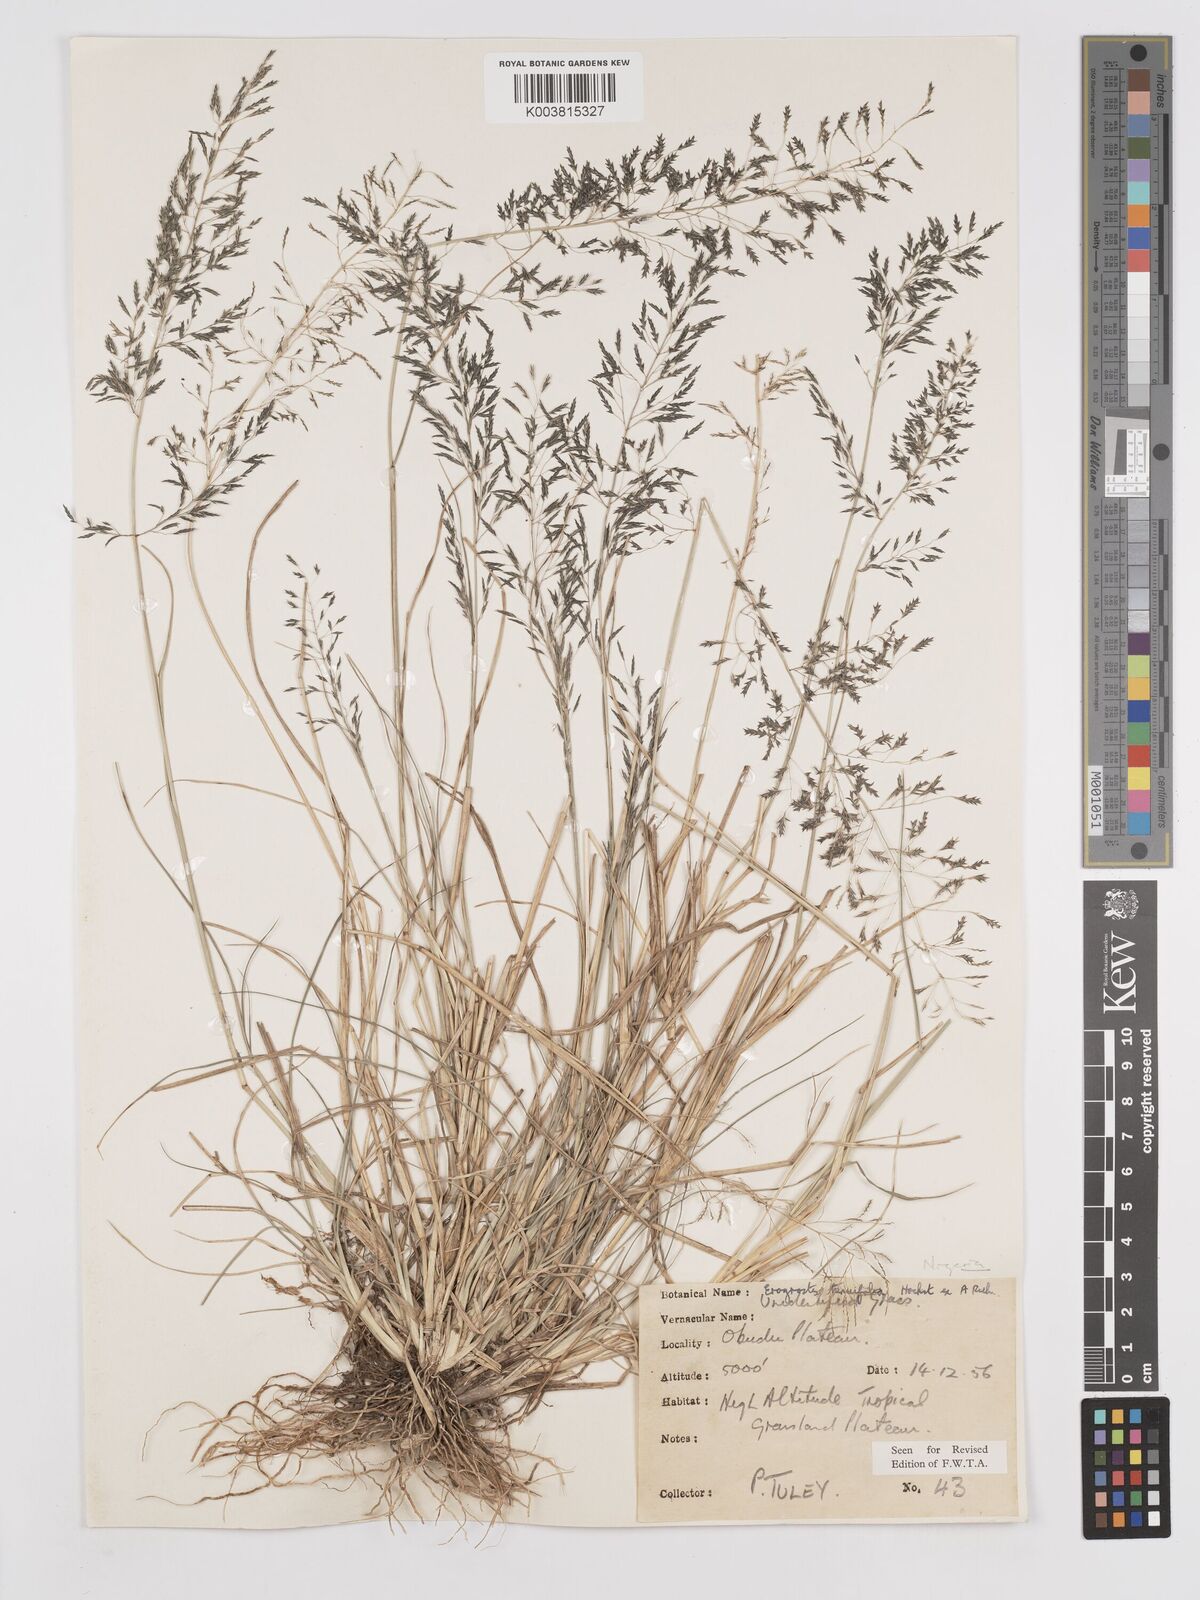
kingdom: Plantae
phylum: Tracheophyta
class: Liliopsida
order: Poales
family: Poaceae
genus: Eragrostis
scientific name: Eragrostis tenuifolia
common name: Elastic grass
